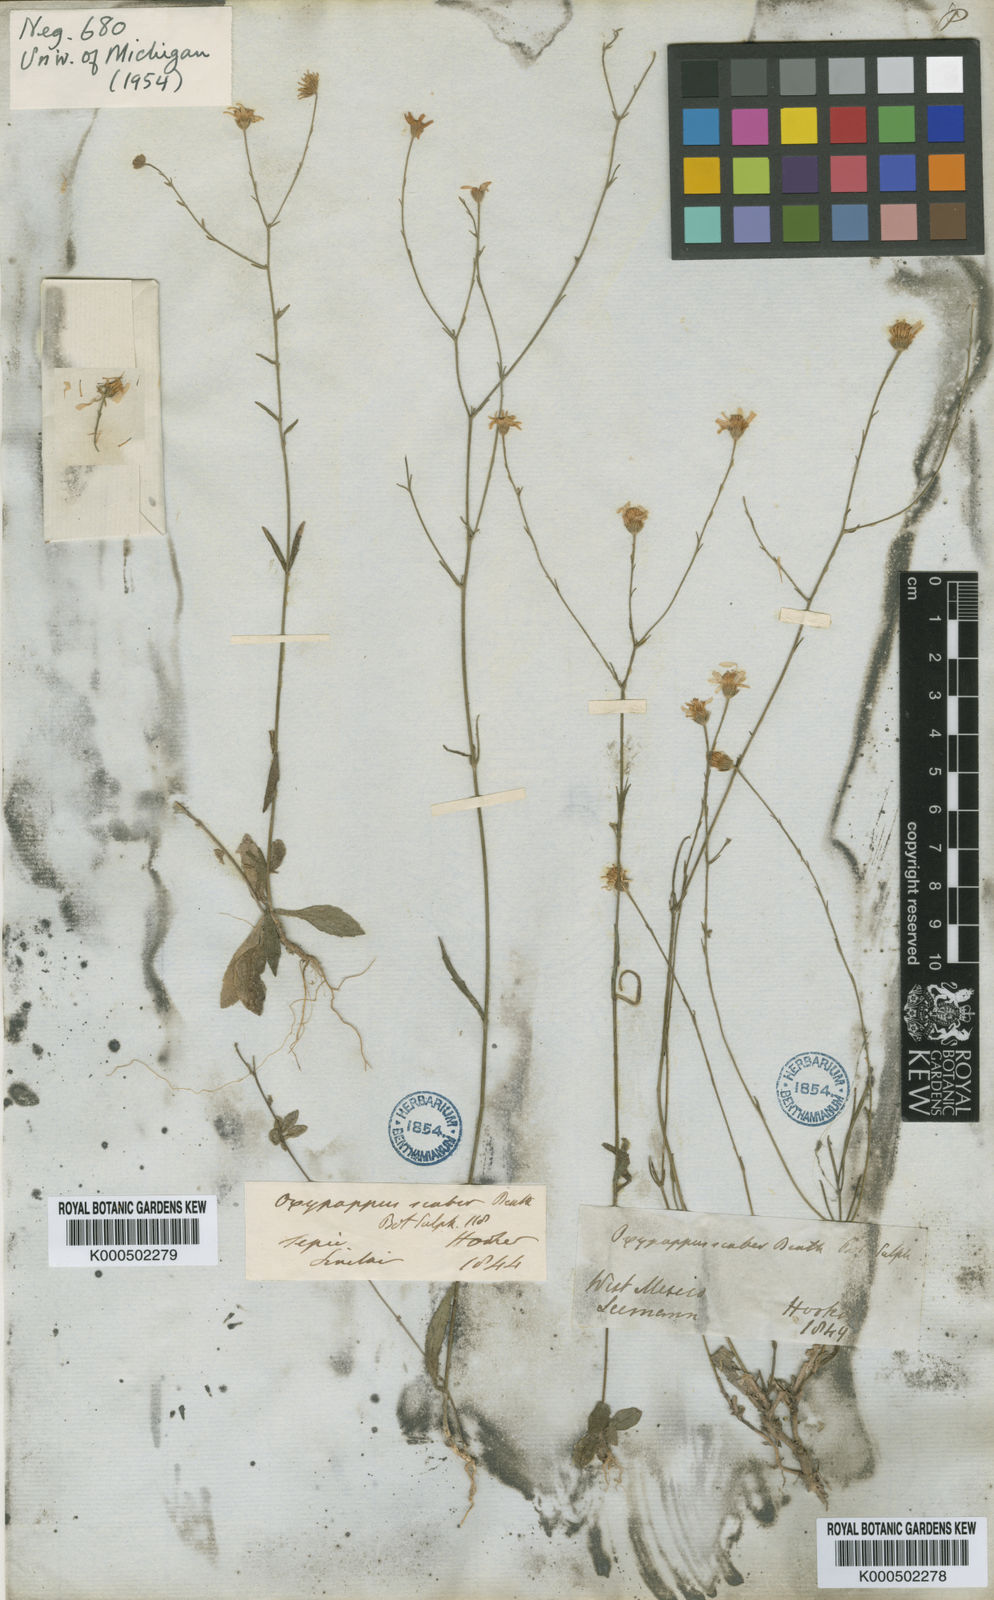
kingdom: Plantae
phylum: Tracheophyta
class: Magnoliopsida
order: Asterales
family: Asteraceae
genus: Oxypappus
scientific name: Oxypappus scaber
